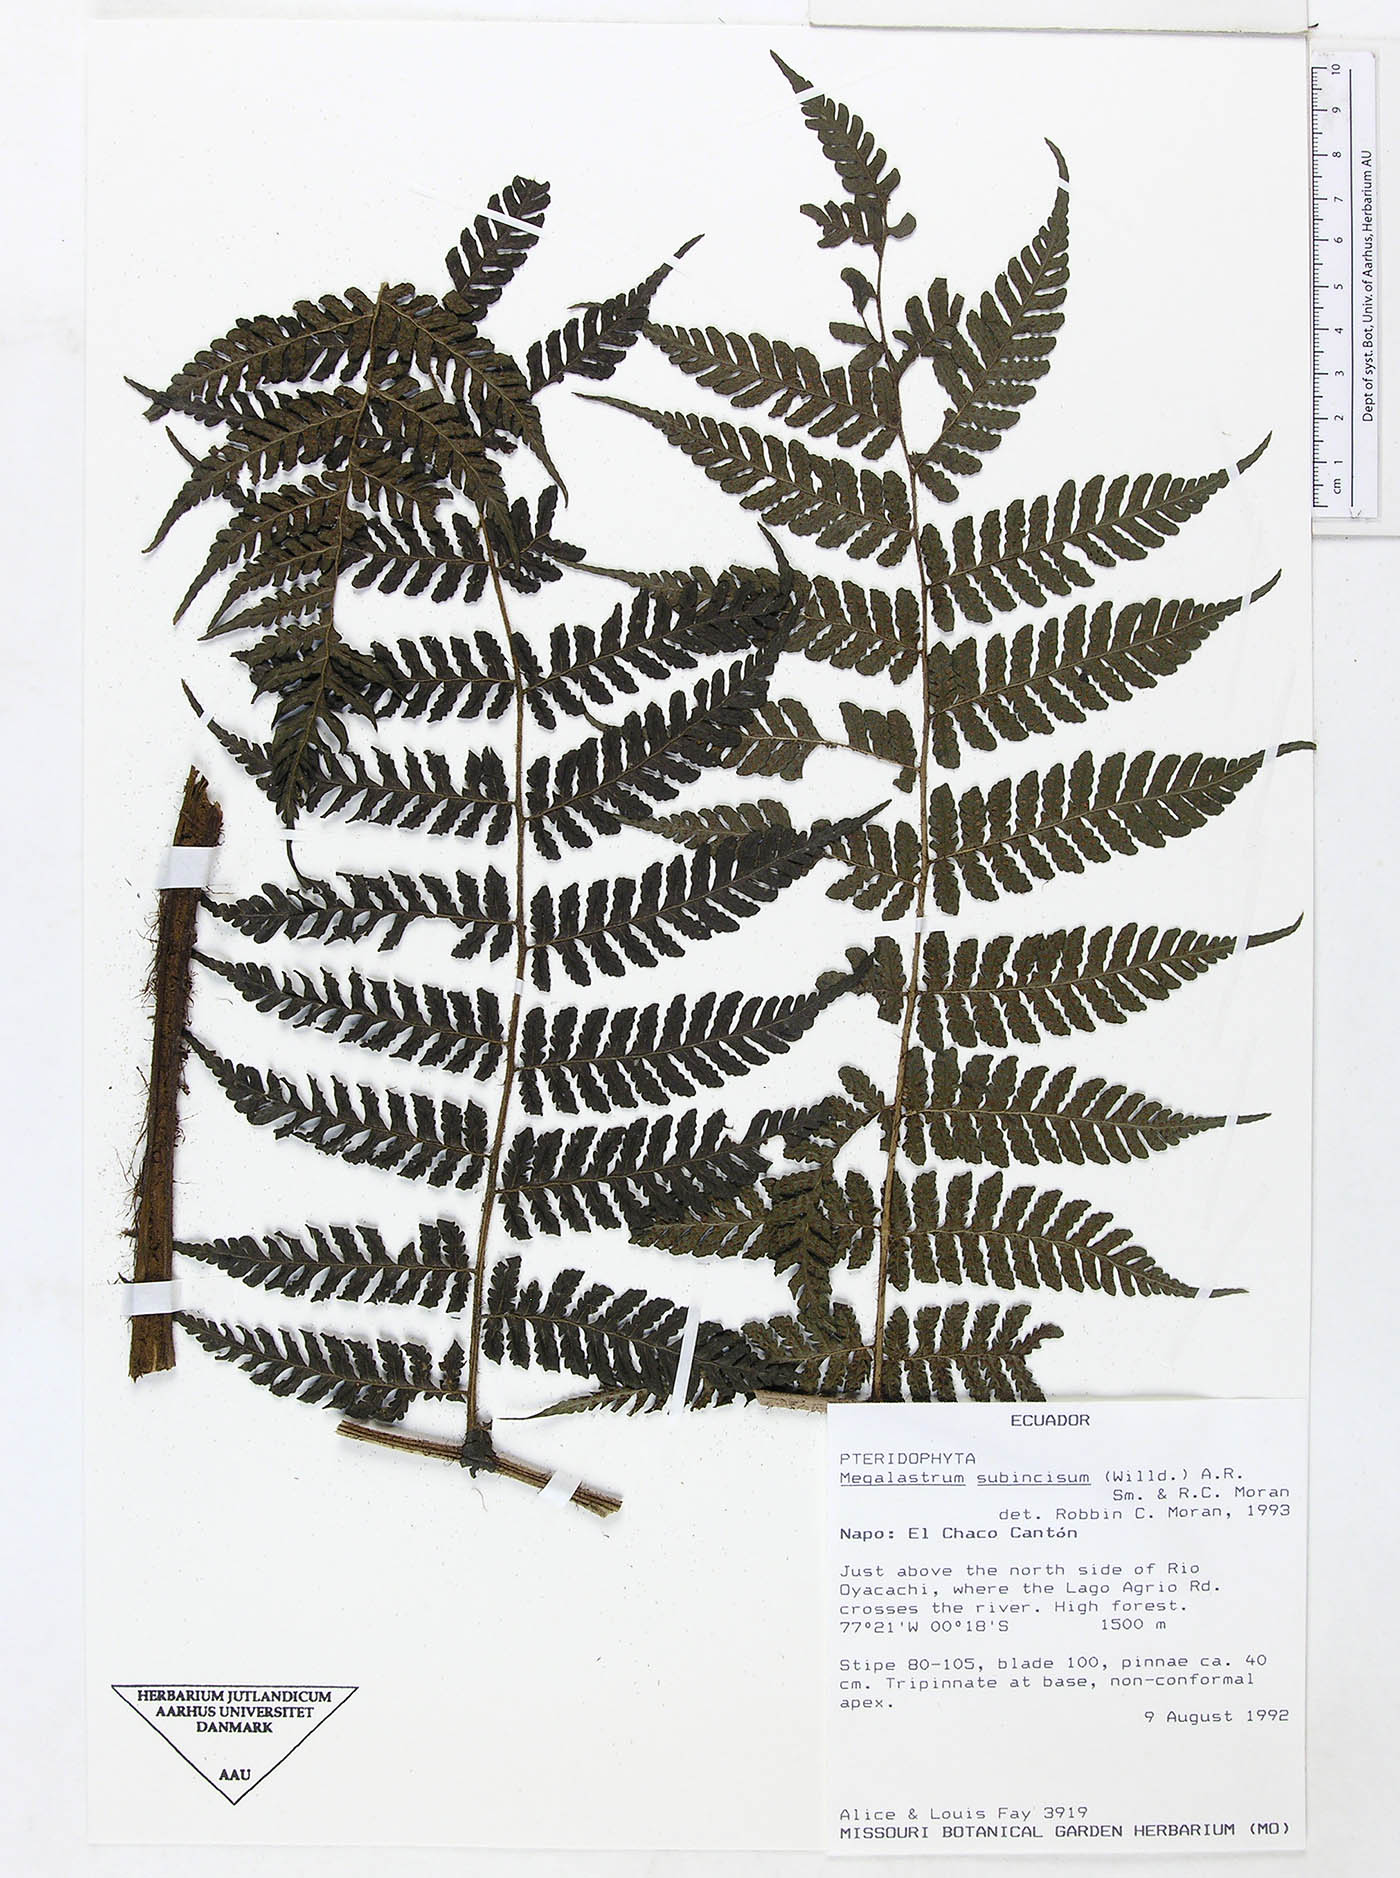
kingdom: Plantae
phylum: Tracheophyta
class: Polypodiopsida
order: Polypodiales
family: Dryopteridaceae
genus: Megalastrum
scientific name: Megalastrum pubirhachis
